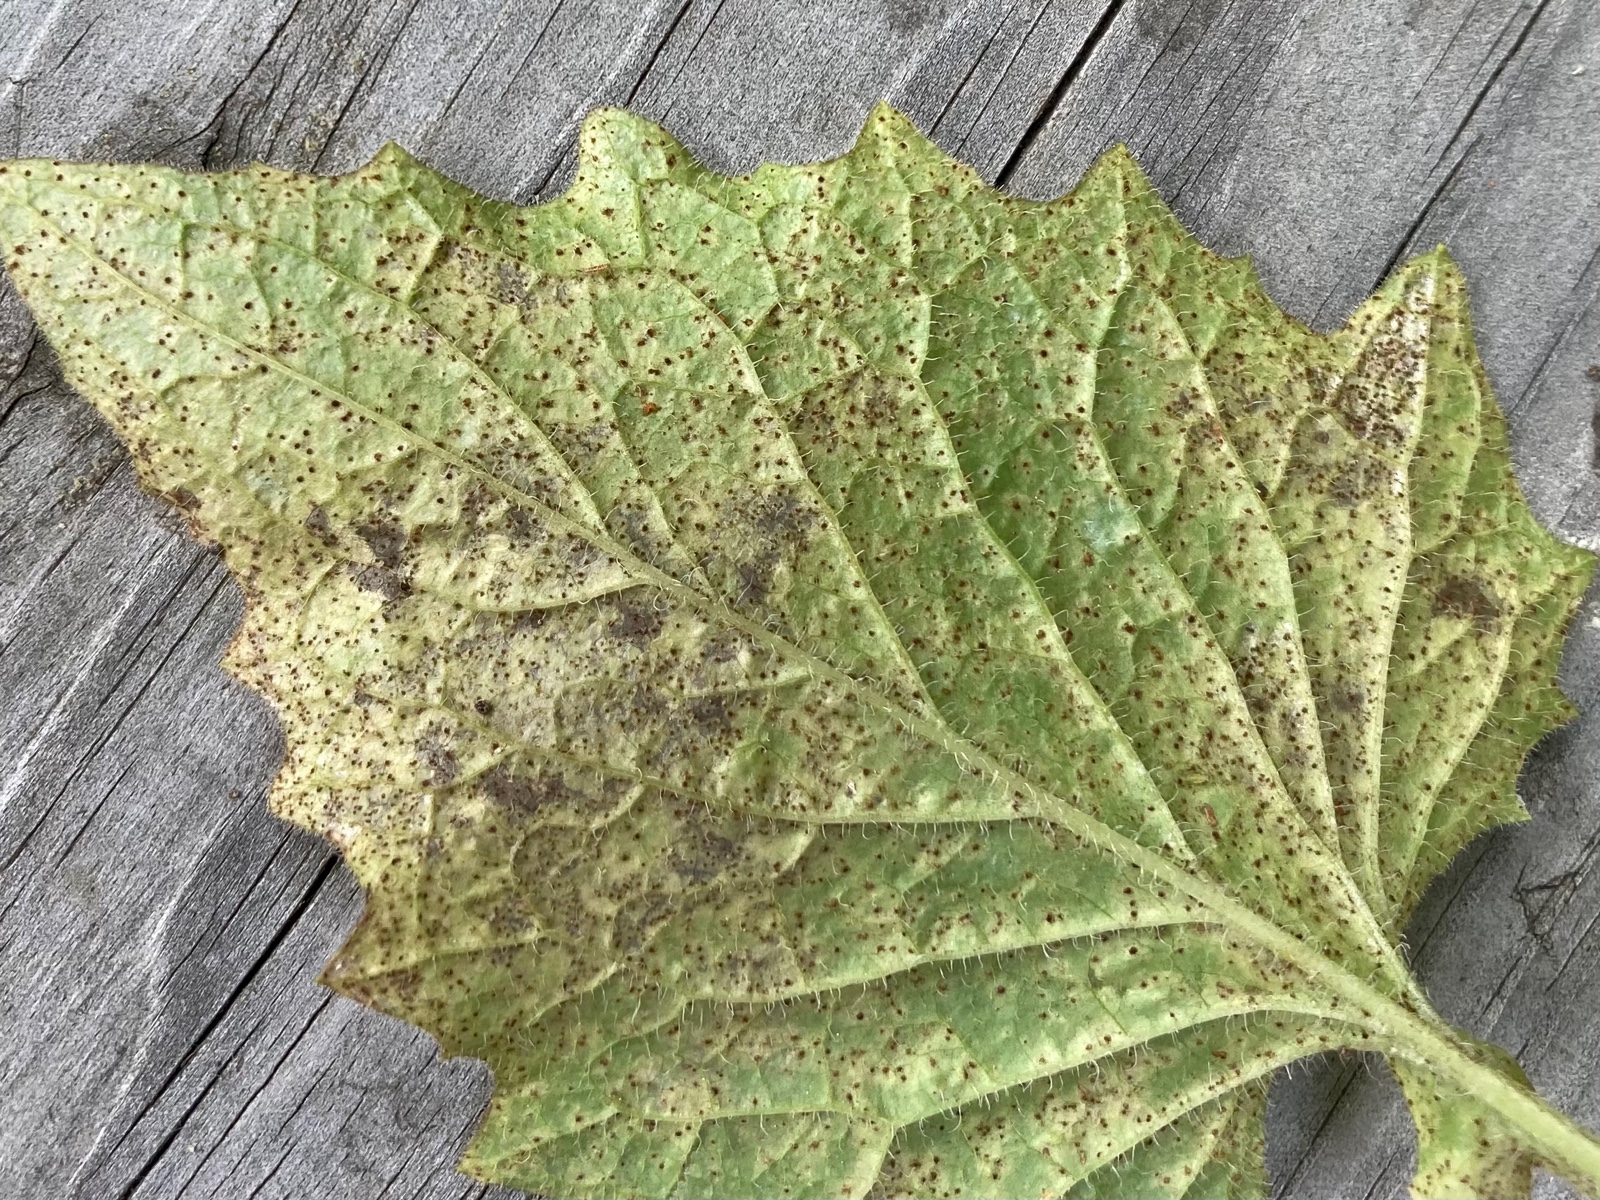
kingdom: Fungi
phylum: Basidiomycota
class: Pucciniomycetes
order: Pucciniales
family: Pucciniaceae
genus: Puccinia
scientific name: Puccinia lapsanae
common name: Nipplewort rust
